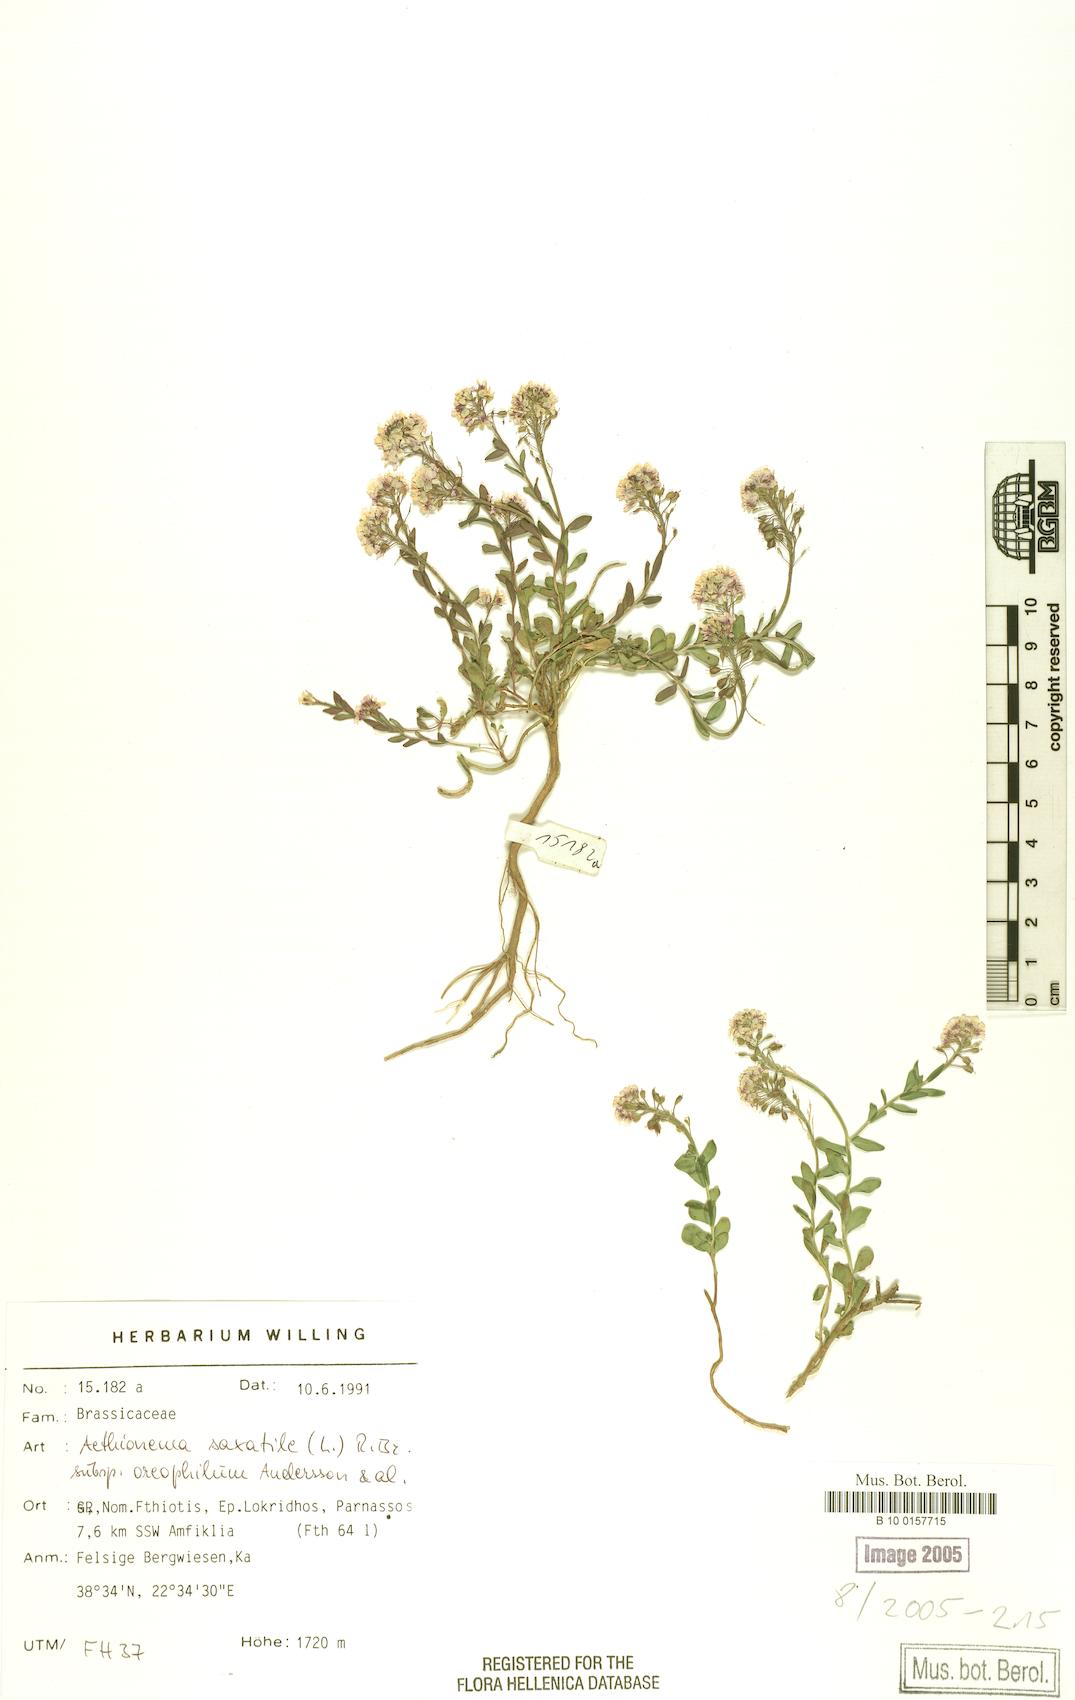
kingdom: Plantae
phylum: Tracheophyta
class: Magnoliopsida
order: Brassicales
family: Brassicaceae
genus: Aethionema
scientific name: Aethionema saxatile
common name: Burnt candytuft
